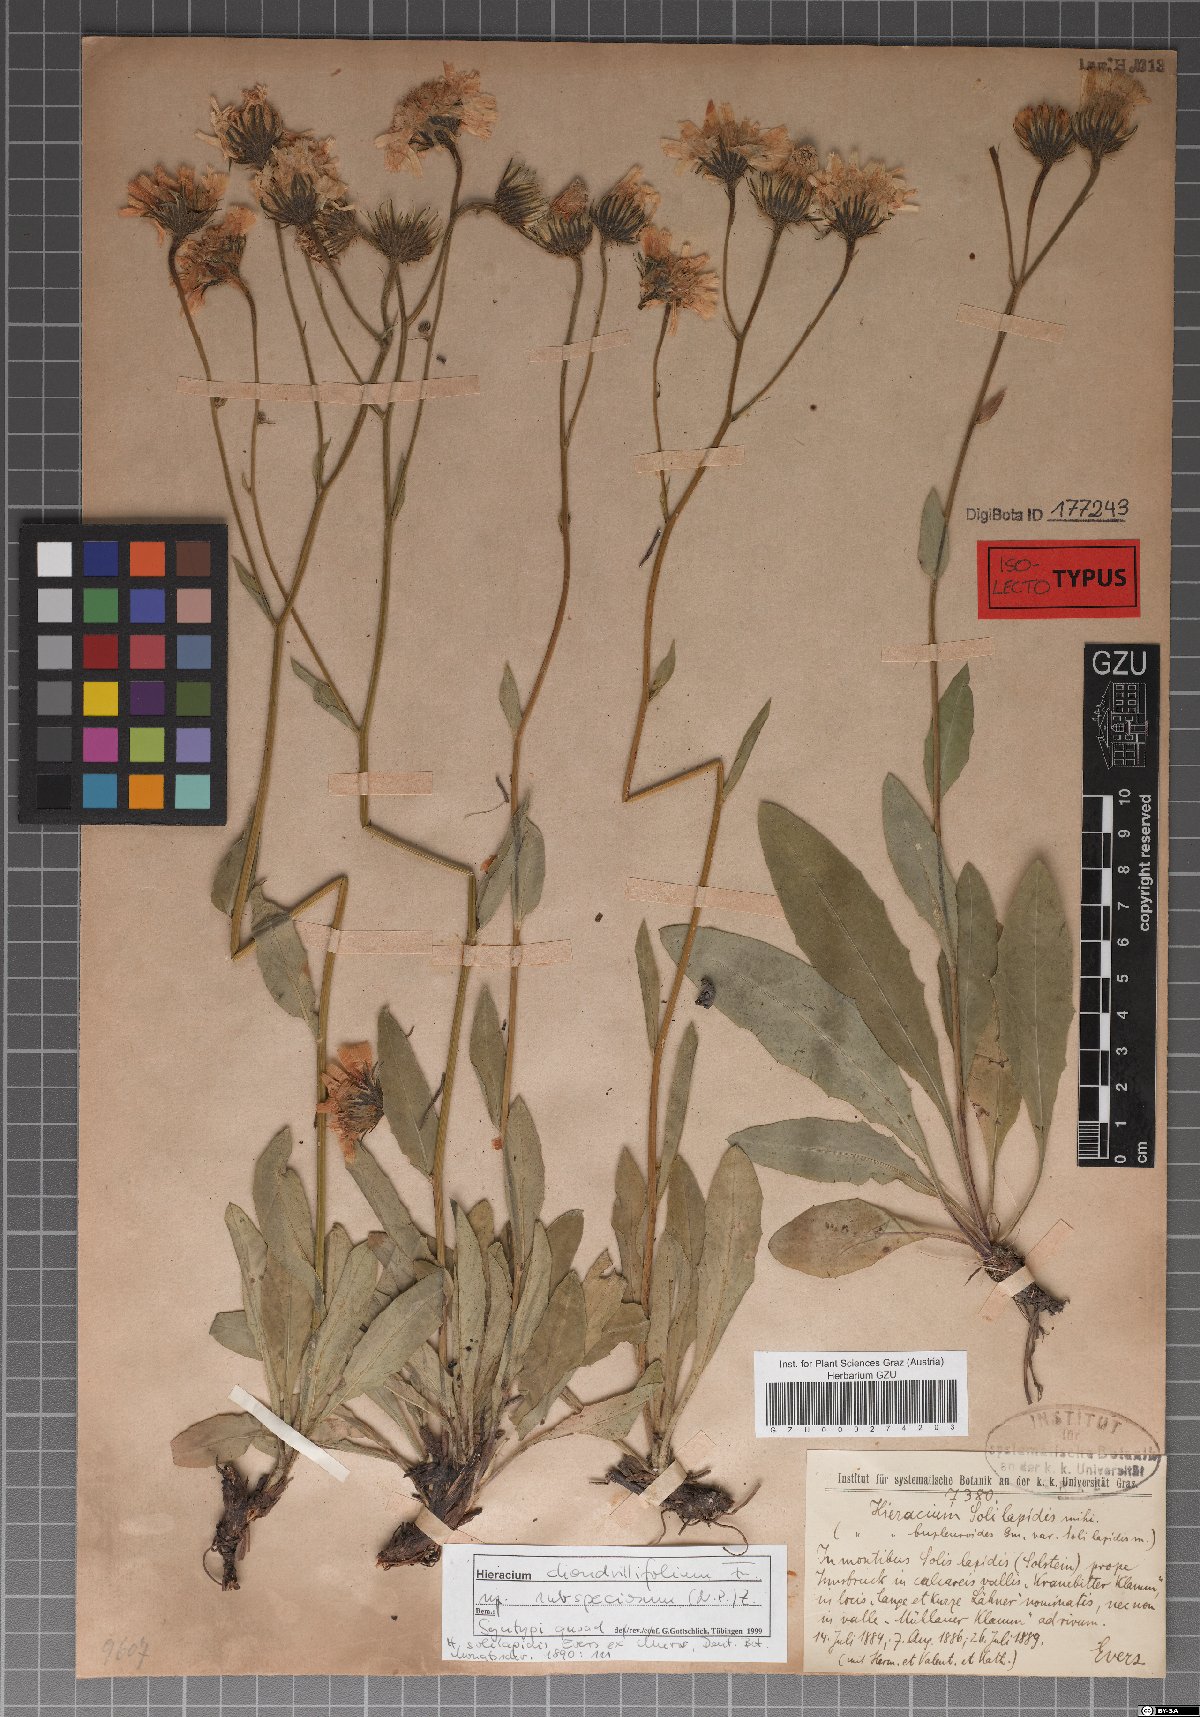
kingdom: Plantae
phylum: Tracheophyta
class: Magnoliopsida
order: Asterales
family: Asteraceae
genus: Hieracium
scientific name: Hieracium subspeciosum
